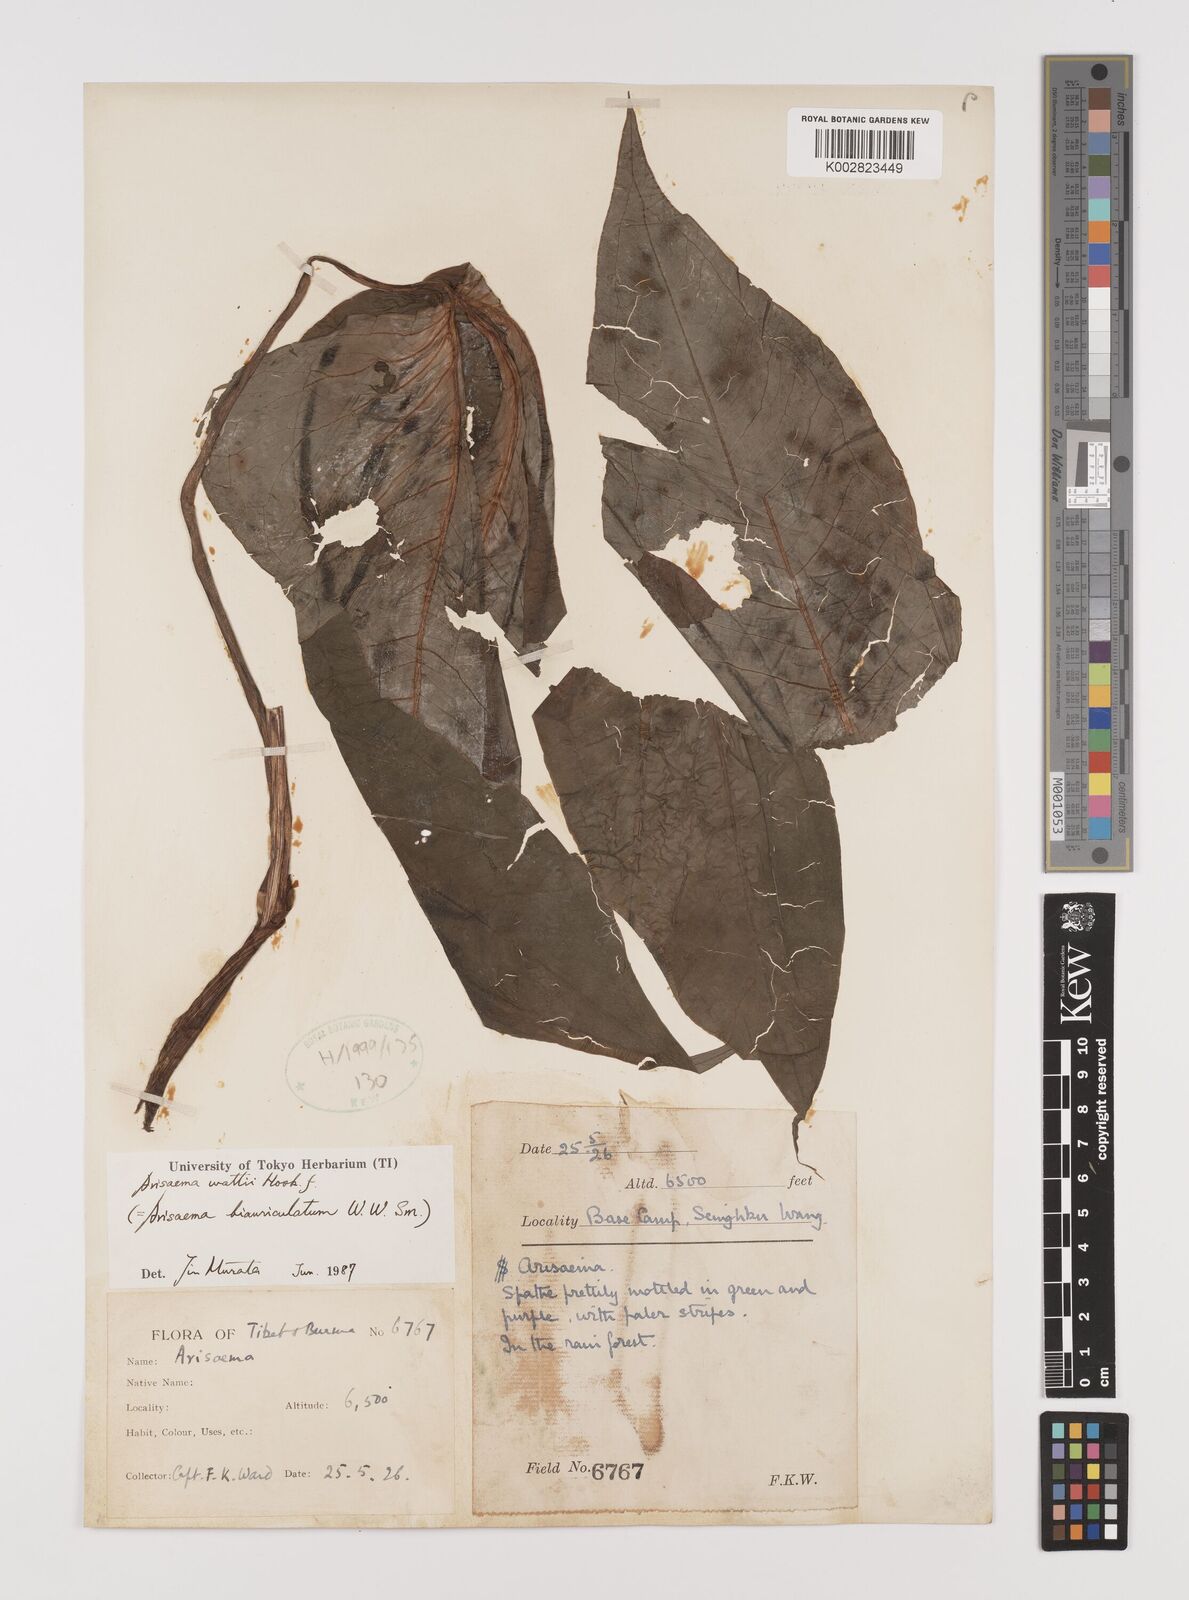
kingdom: Plantae
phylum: Tracheophyta
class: Liliopsida
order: Alismatales
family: Araceae
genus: Arisaema
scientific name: Arisaema wattii
